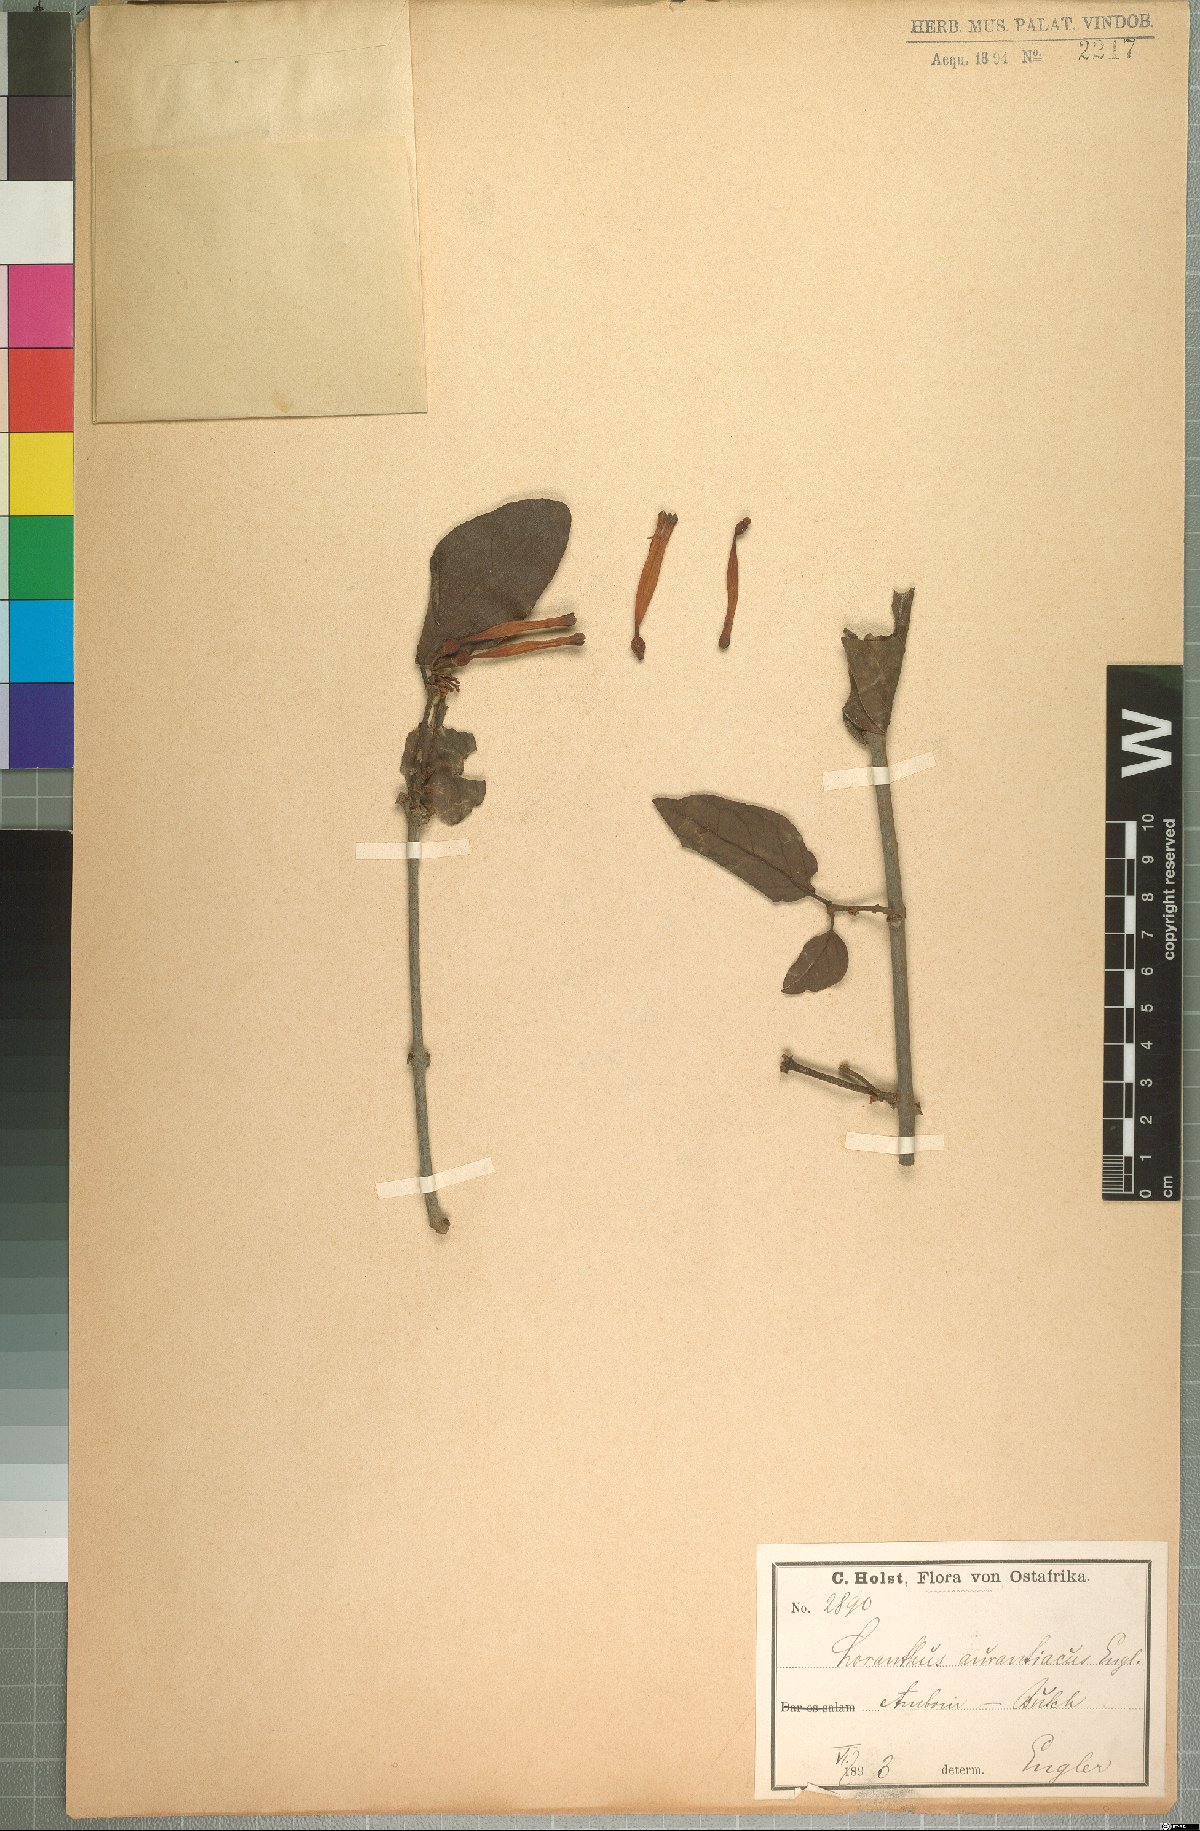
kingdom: Plantae
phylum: Tracheophyta
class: Magnoliopsida
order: Santalales
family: Loranthaceae
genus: Agelanthus
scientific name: Agelanthus heteromorphus
